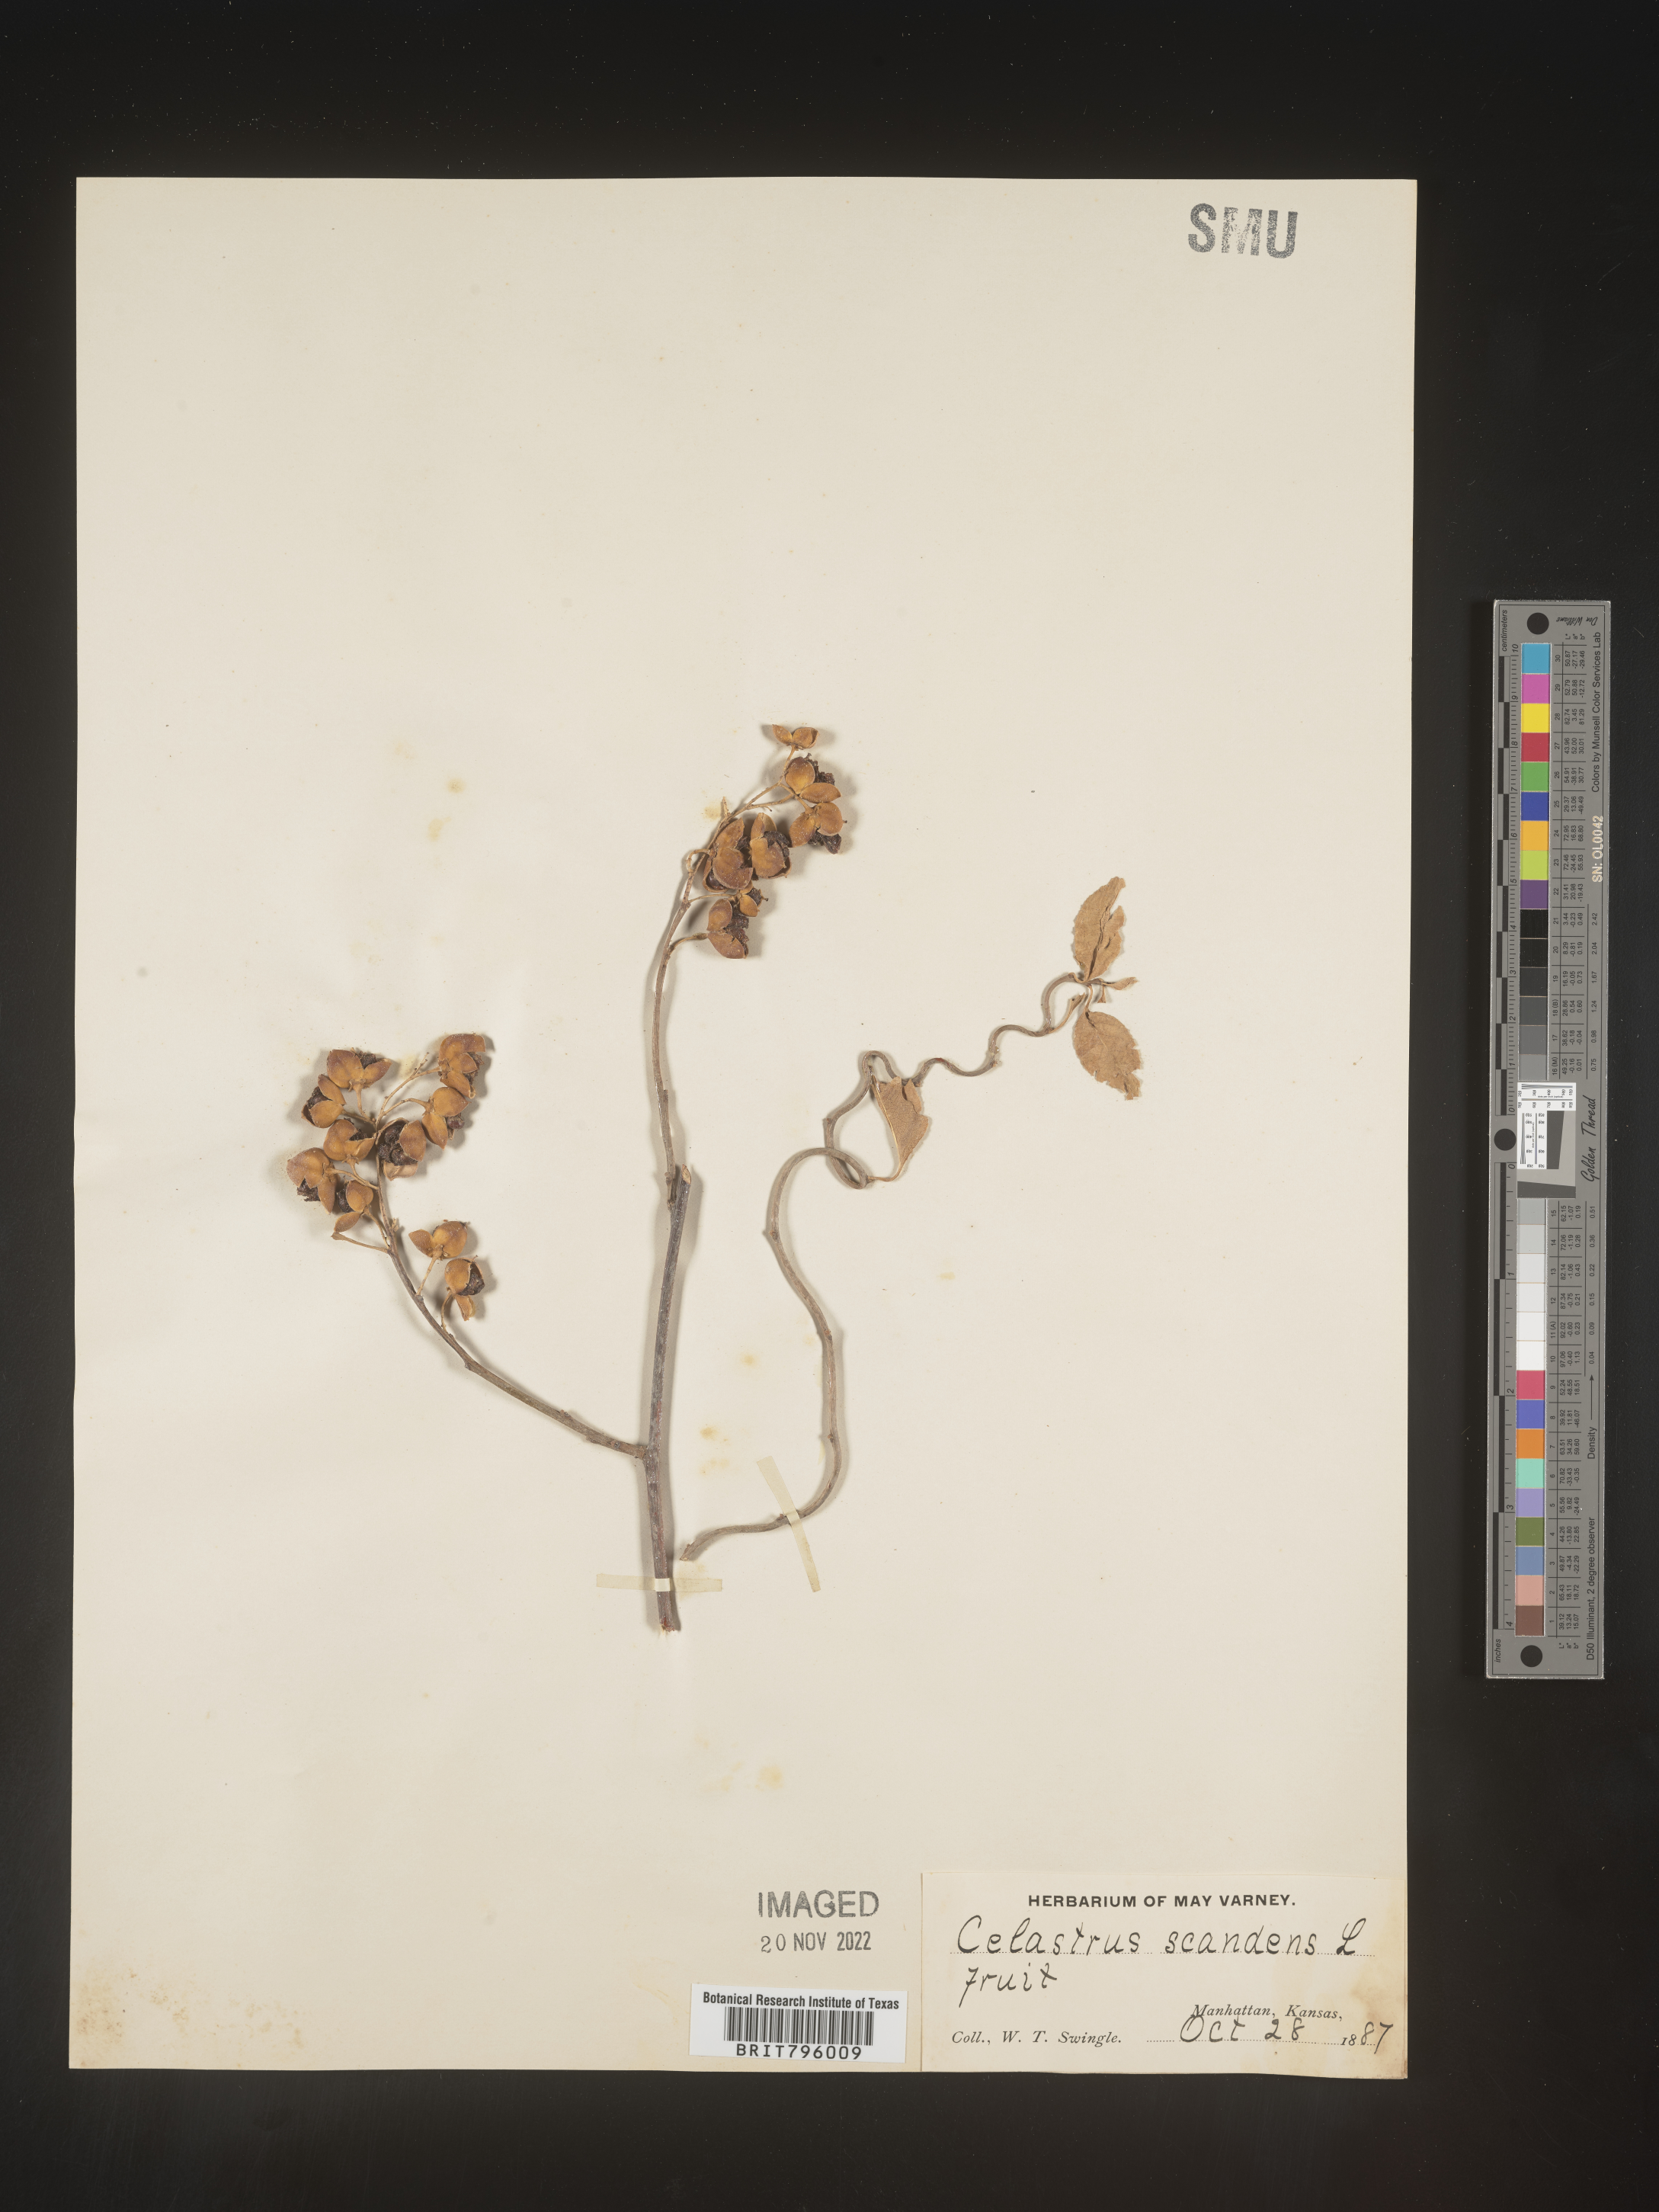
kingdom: Plantae
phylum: Tracheophyta
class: Magnoliopsida
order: Celastrales
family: Celastraceae
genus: Celastrus
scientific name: Celastrus scandens
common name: American bittersweet
